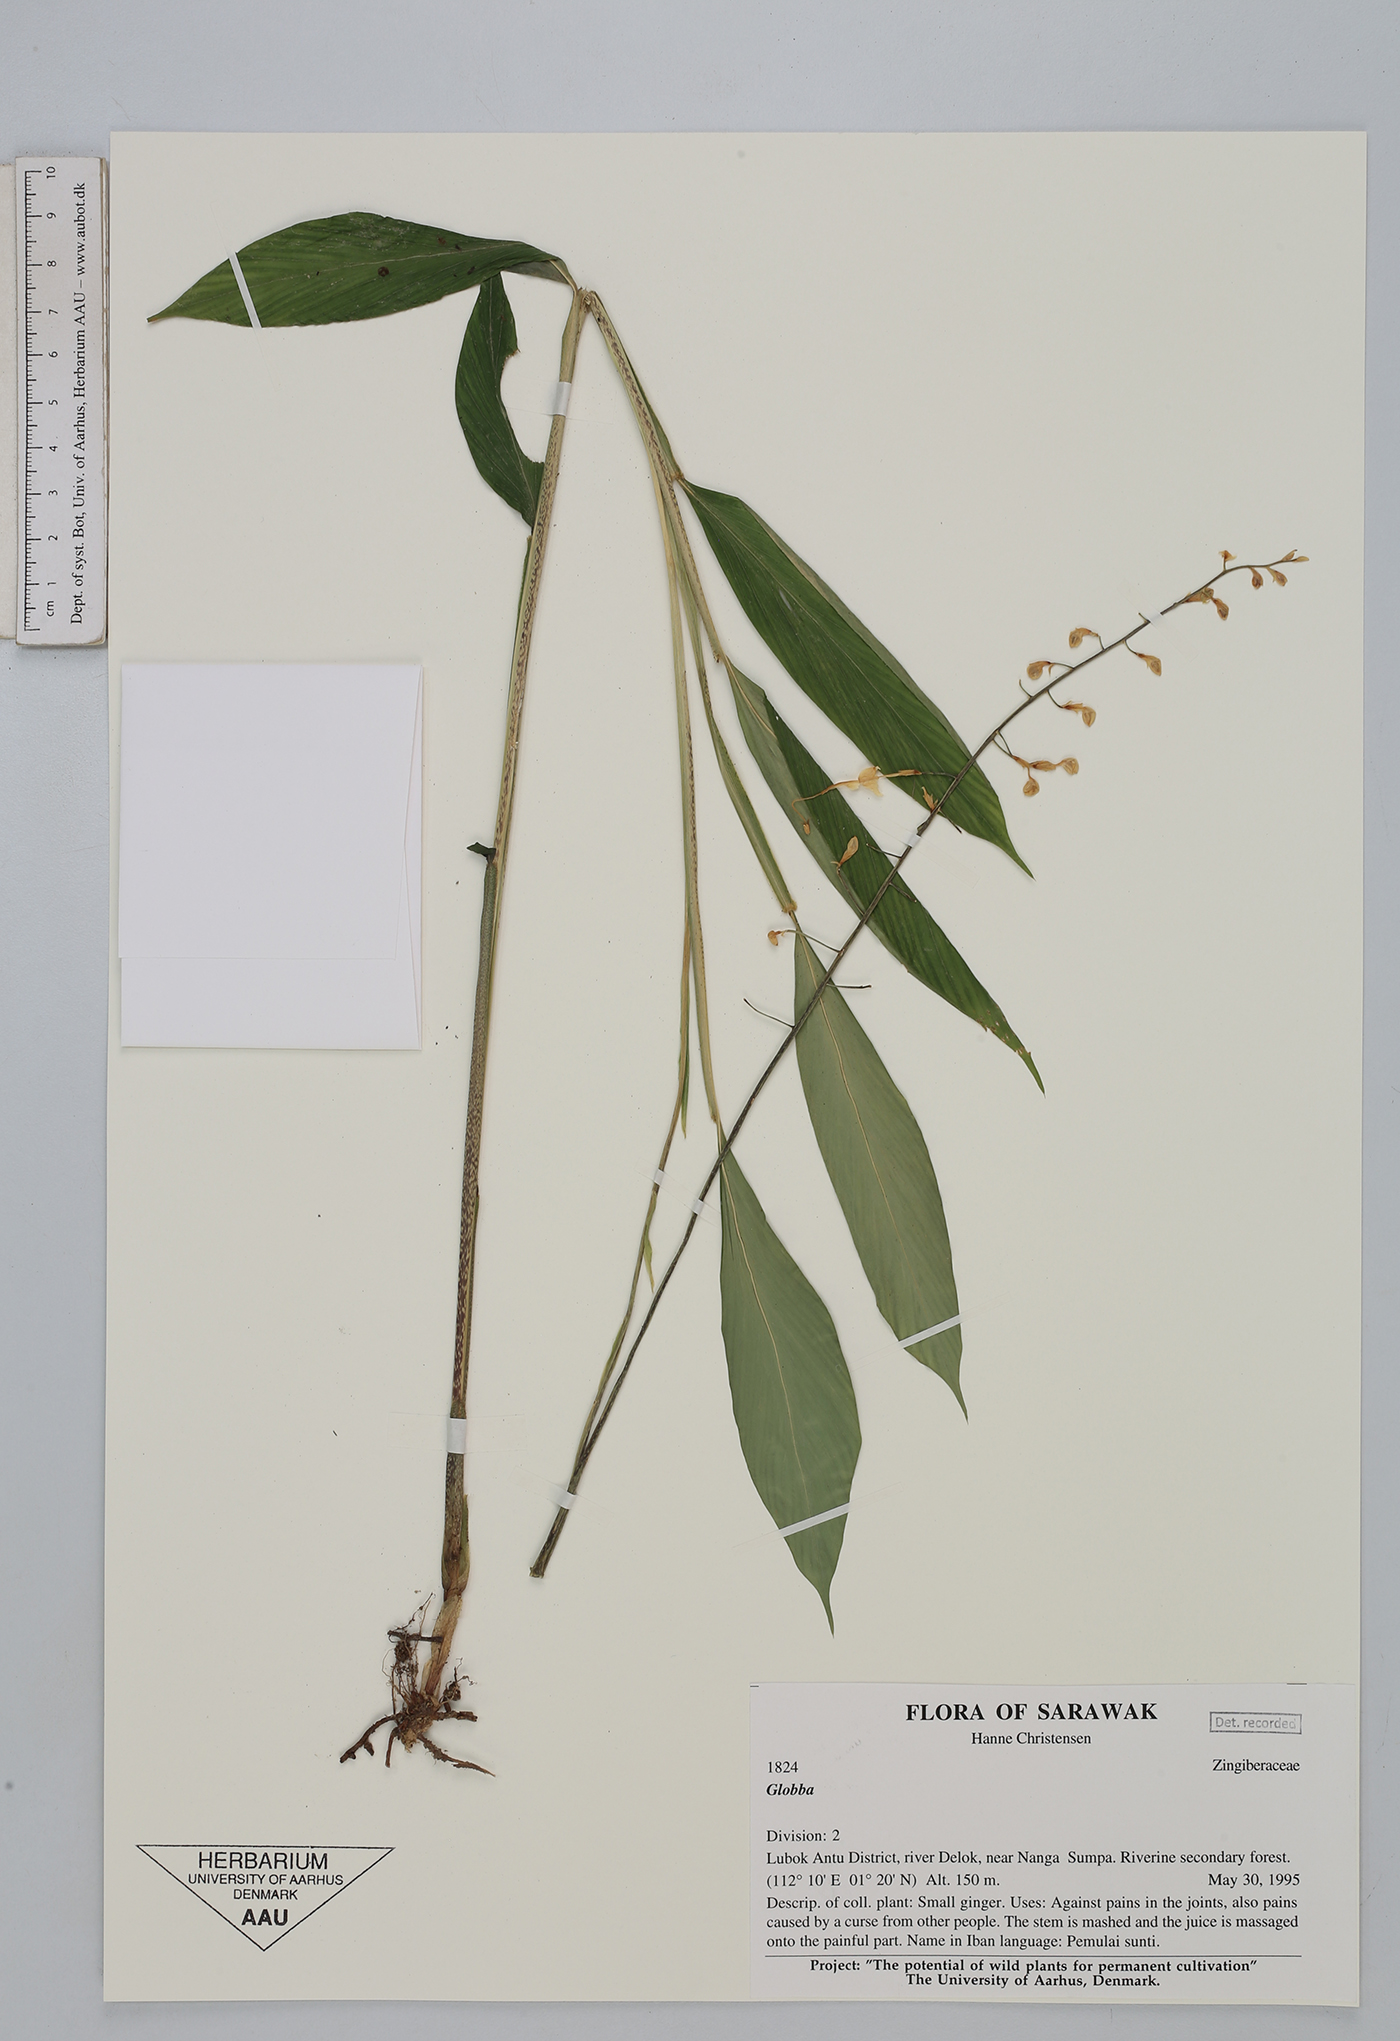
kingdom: Plantae
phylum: Tracheophyta
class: Liliopsida
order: Zingiberales
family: Zingiberaceae
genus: Globba
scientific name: Globba pendula
